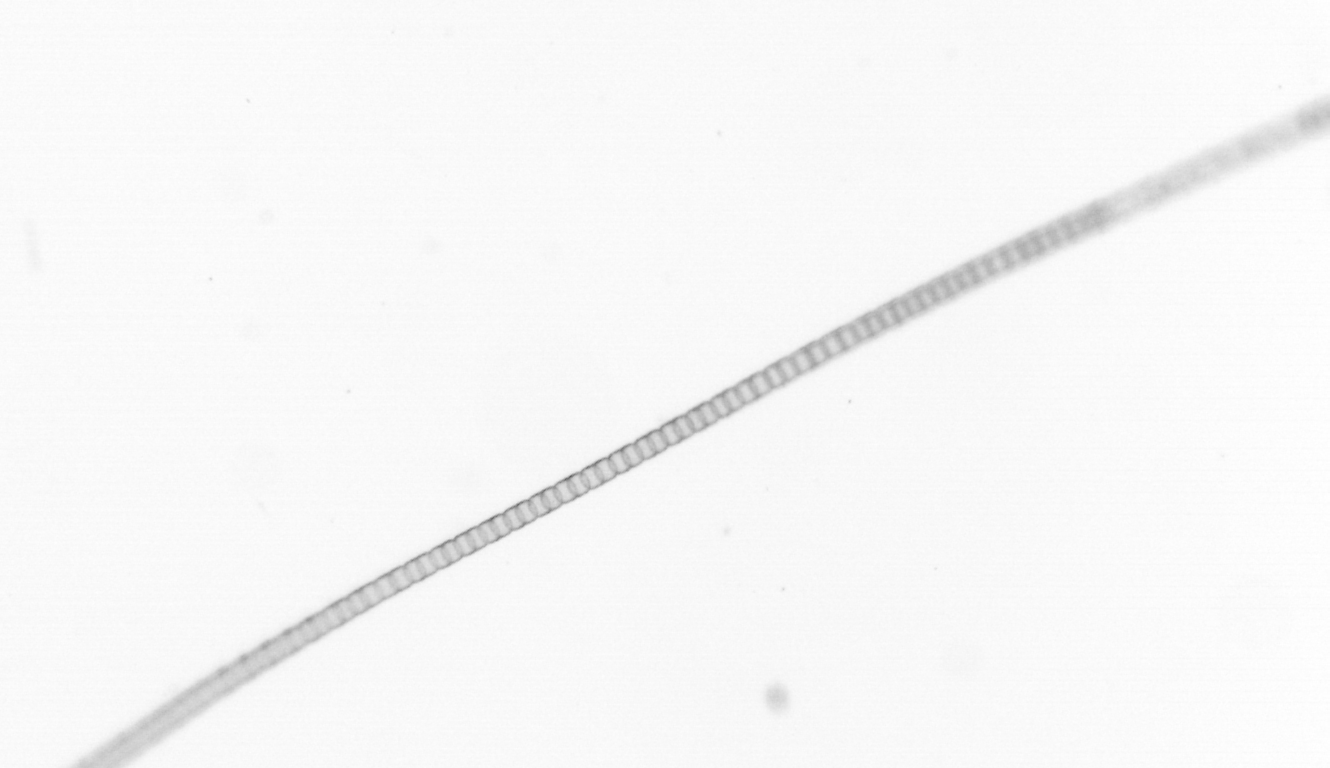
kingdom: Chromista
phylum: Ochrophyta
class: Bacillariophyceae
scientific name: Bacillariophyceae
